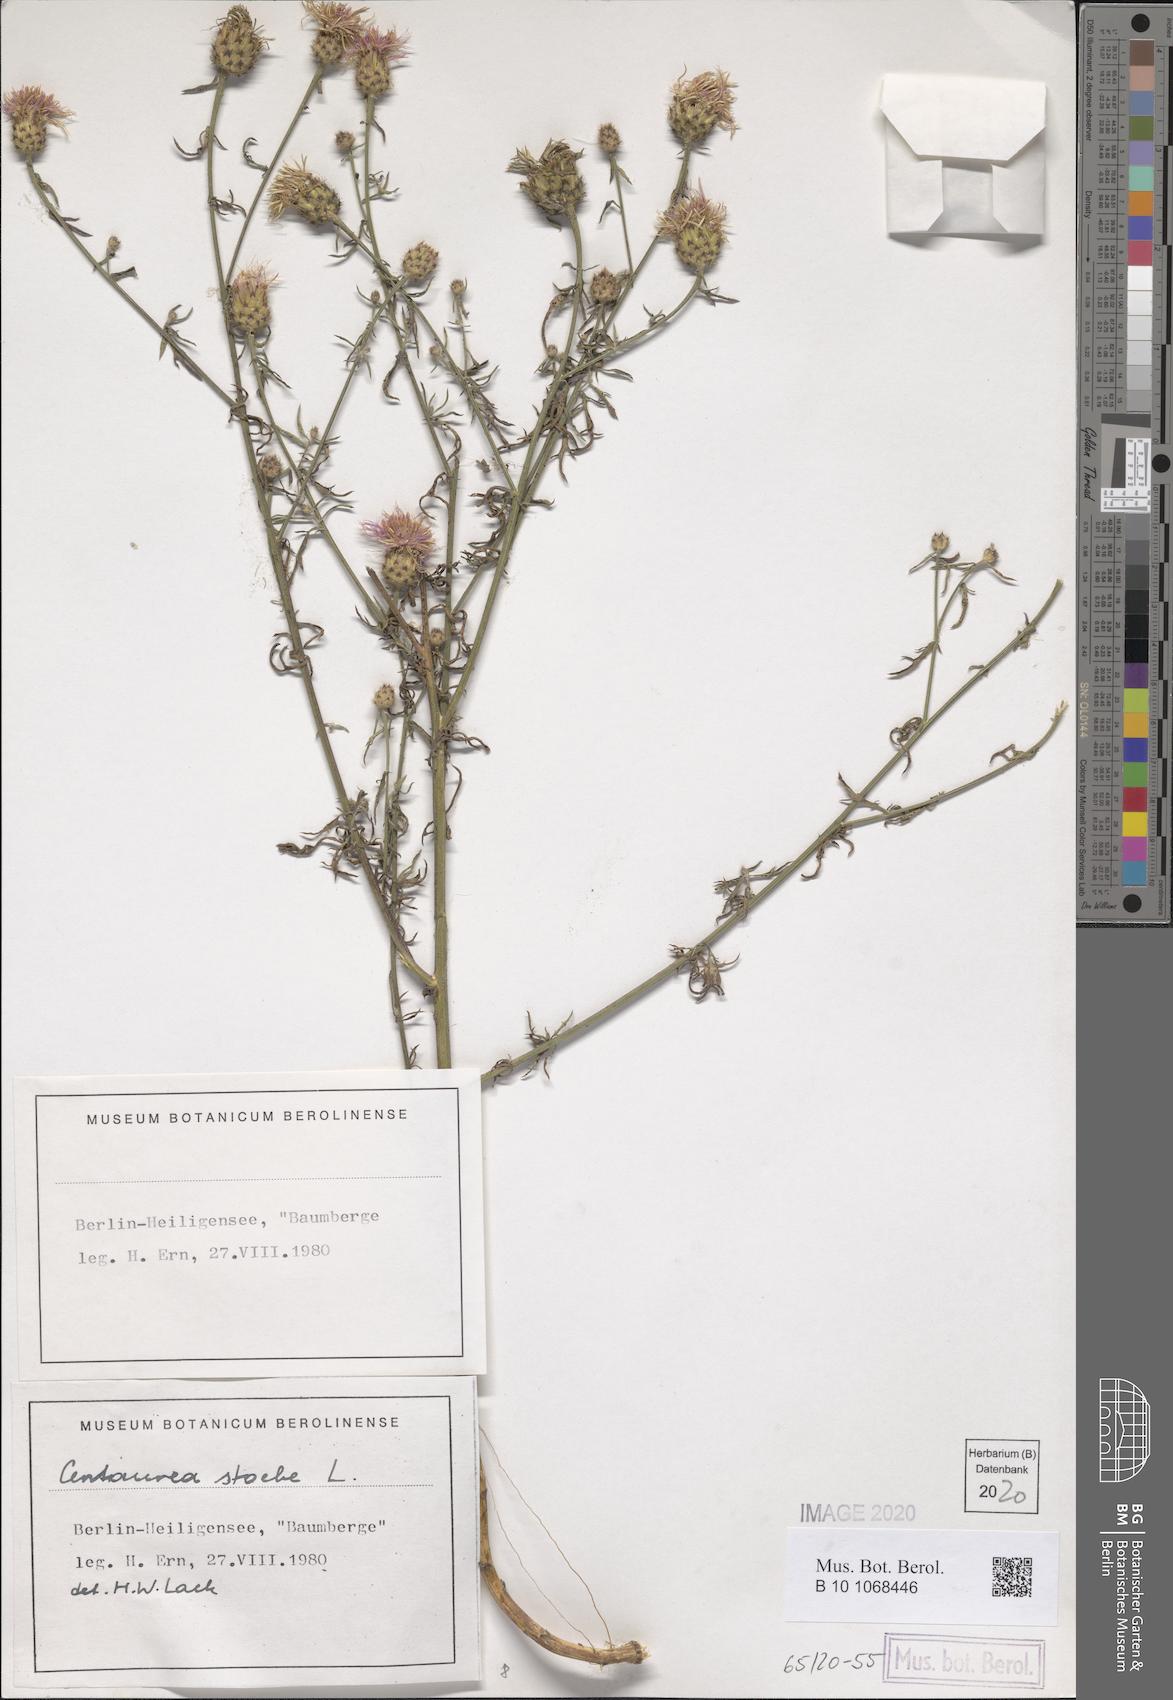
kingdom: Plantae
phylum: Tracheophyta
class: Magnoliopsida
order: Asterales
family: Asteraceae
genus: Centaurea
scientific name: Centaurea stoebe
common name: Spotted knapweed
